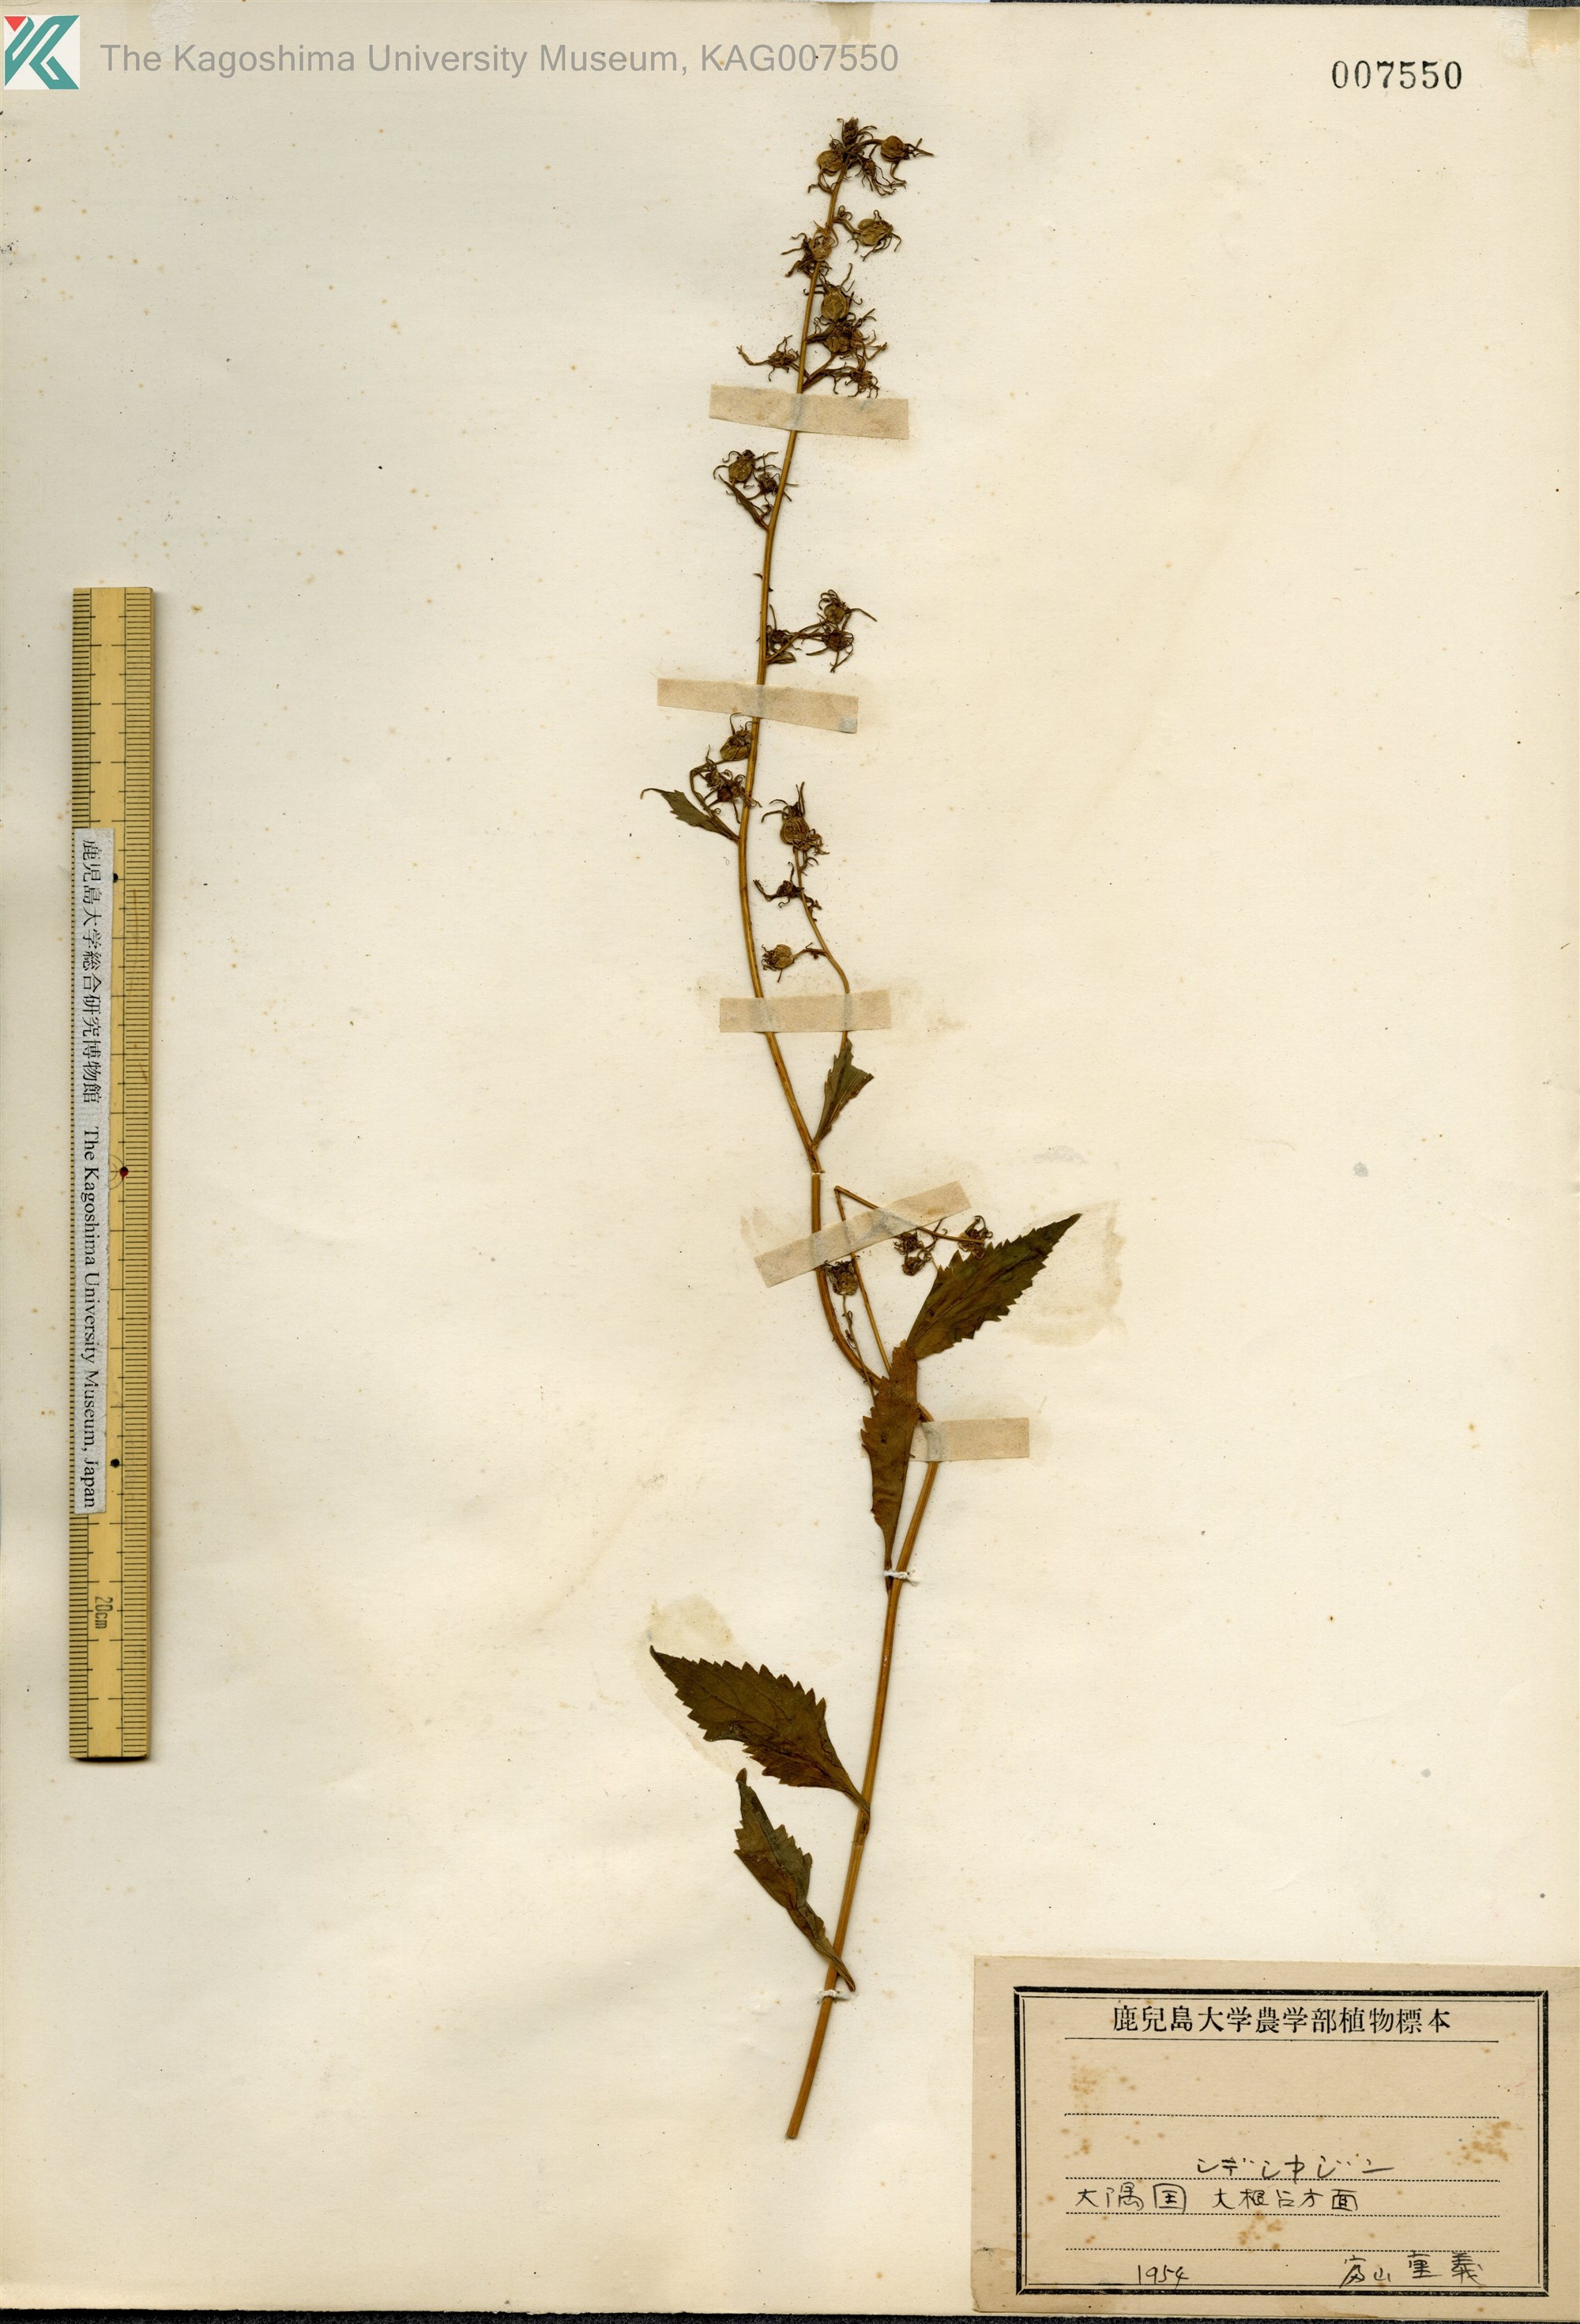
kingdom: Plantae
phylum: Tracheophyta
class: Magnoliopsida
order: Asterales
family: Campanulaceae
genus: Asyneuma
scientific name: Asyneuma japonicum
